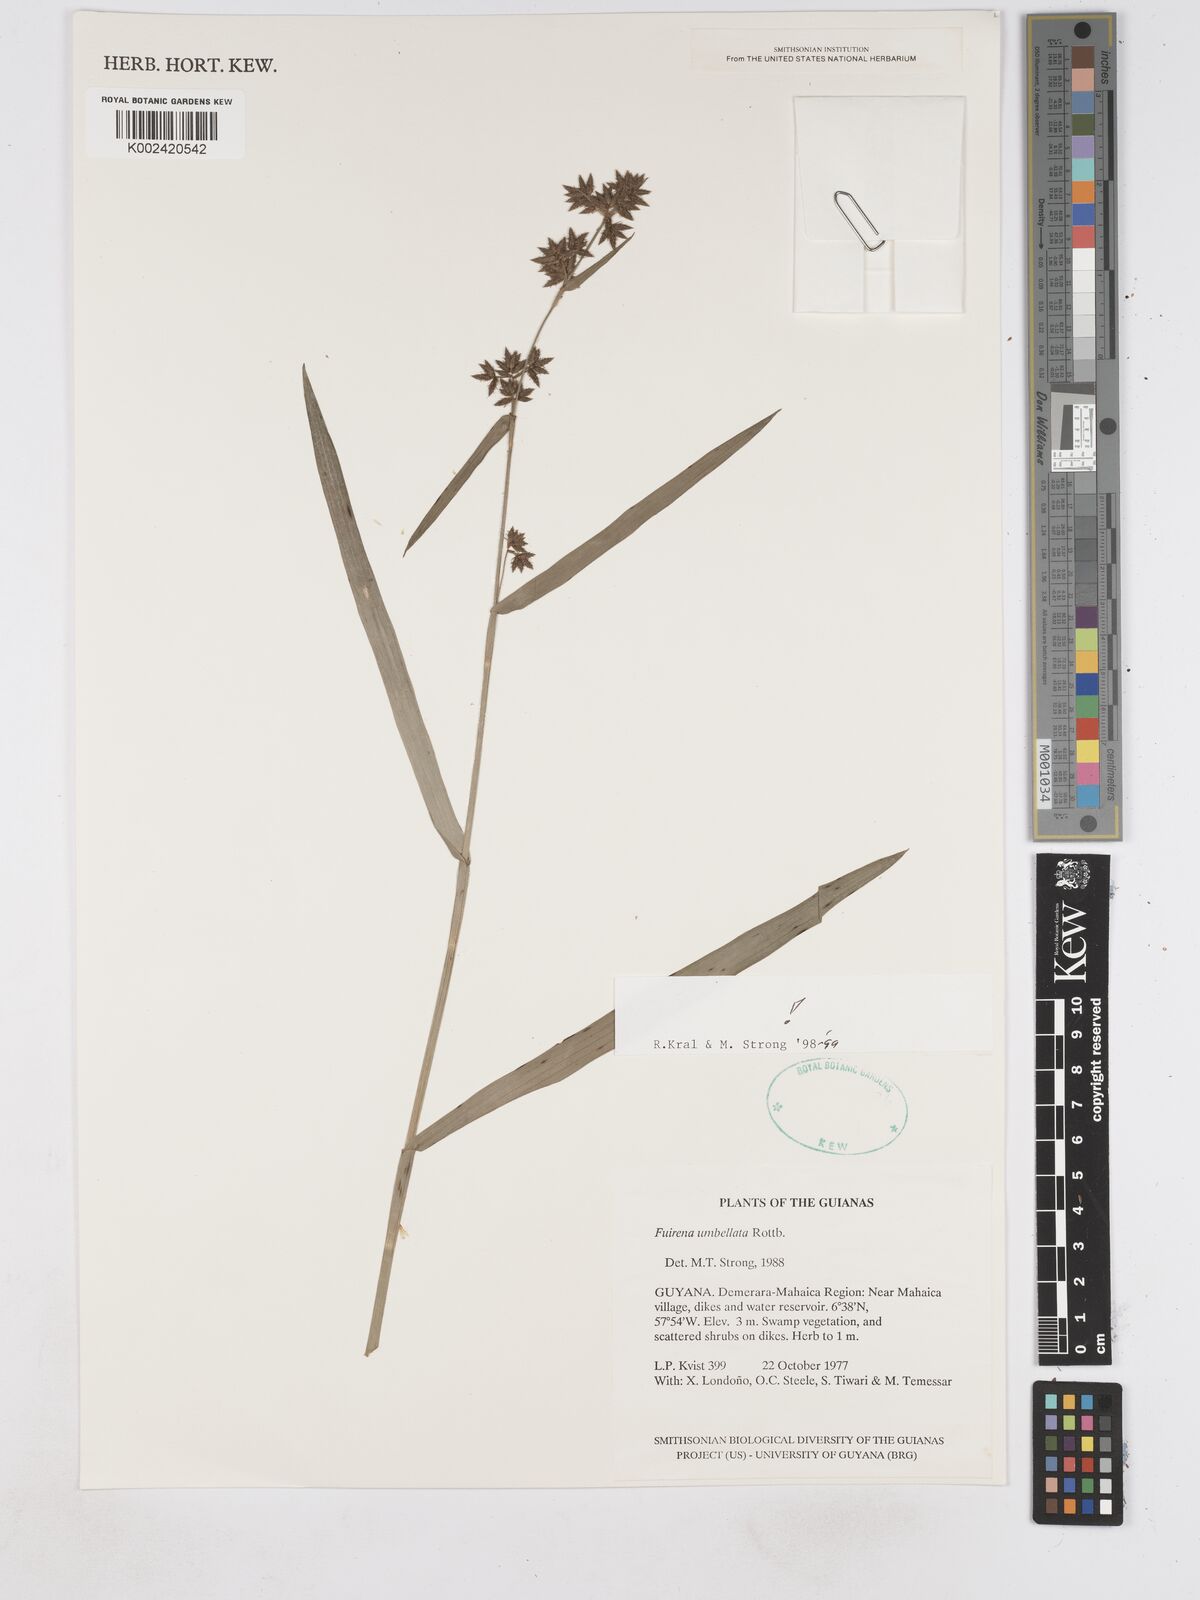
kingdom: Plantae
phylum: Tracheophyta
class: Liliopsida
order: Poales
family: Cyperaceae
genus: Fuirena
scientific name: Fuirena umbellata
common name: Yefen
